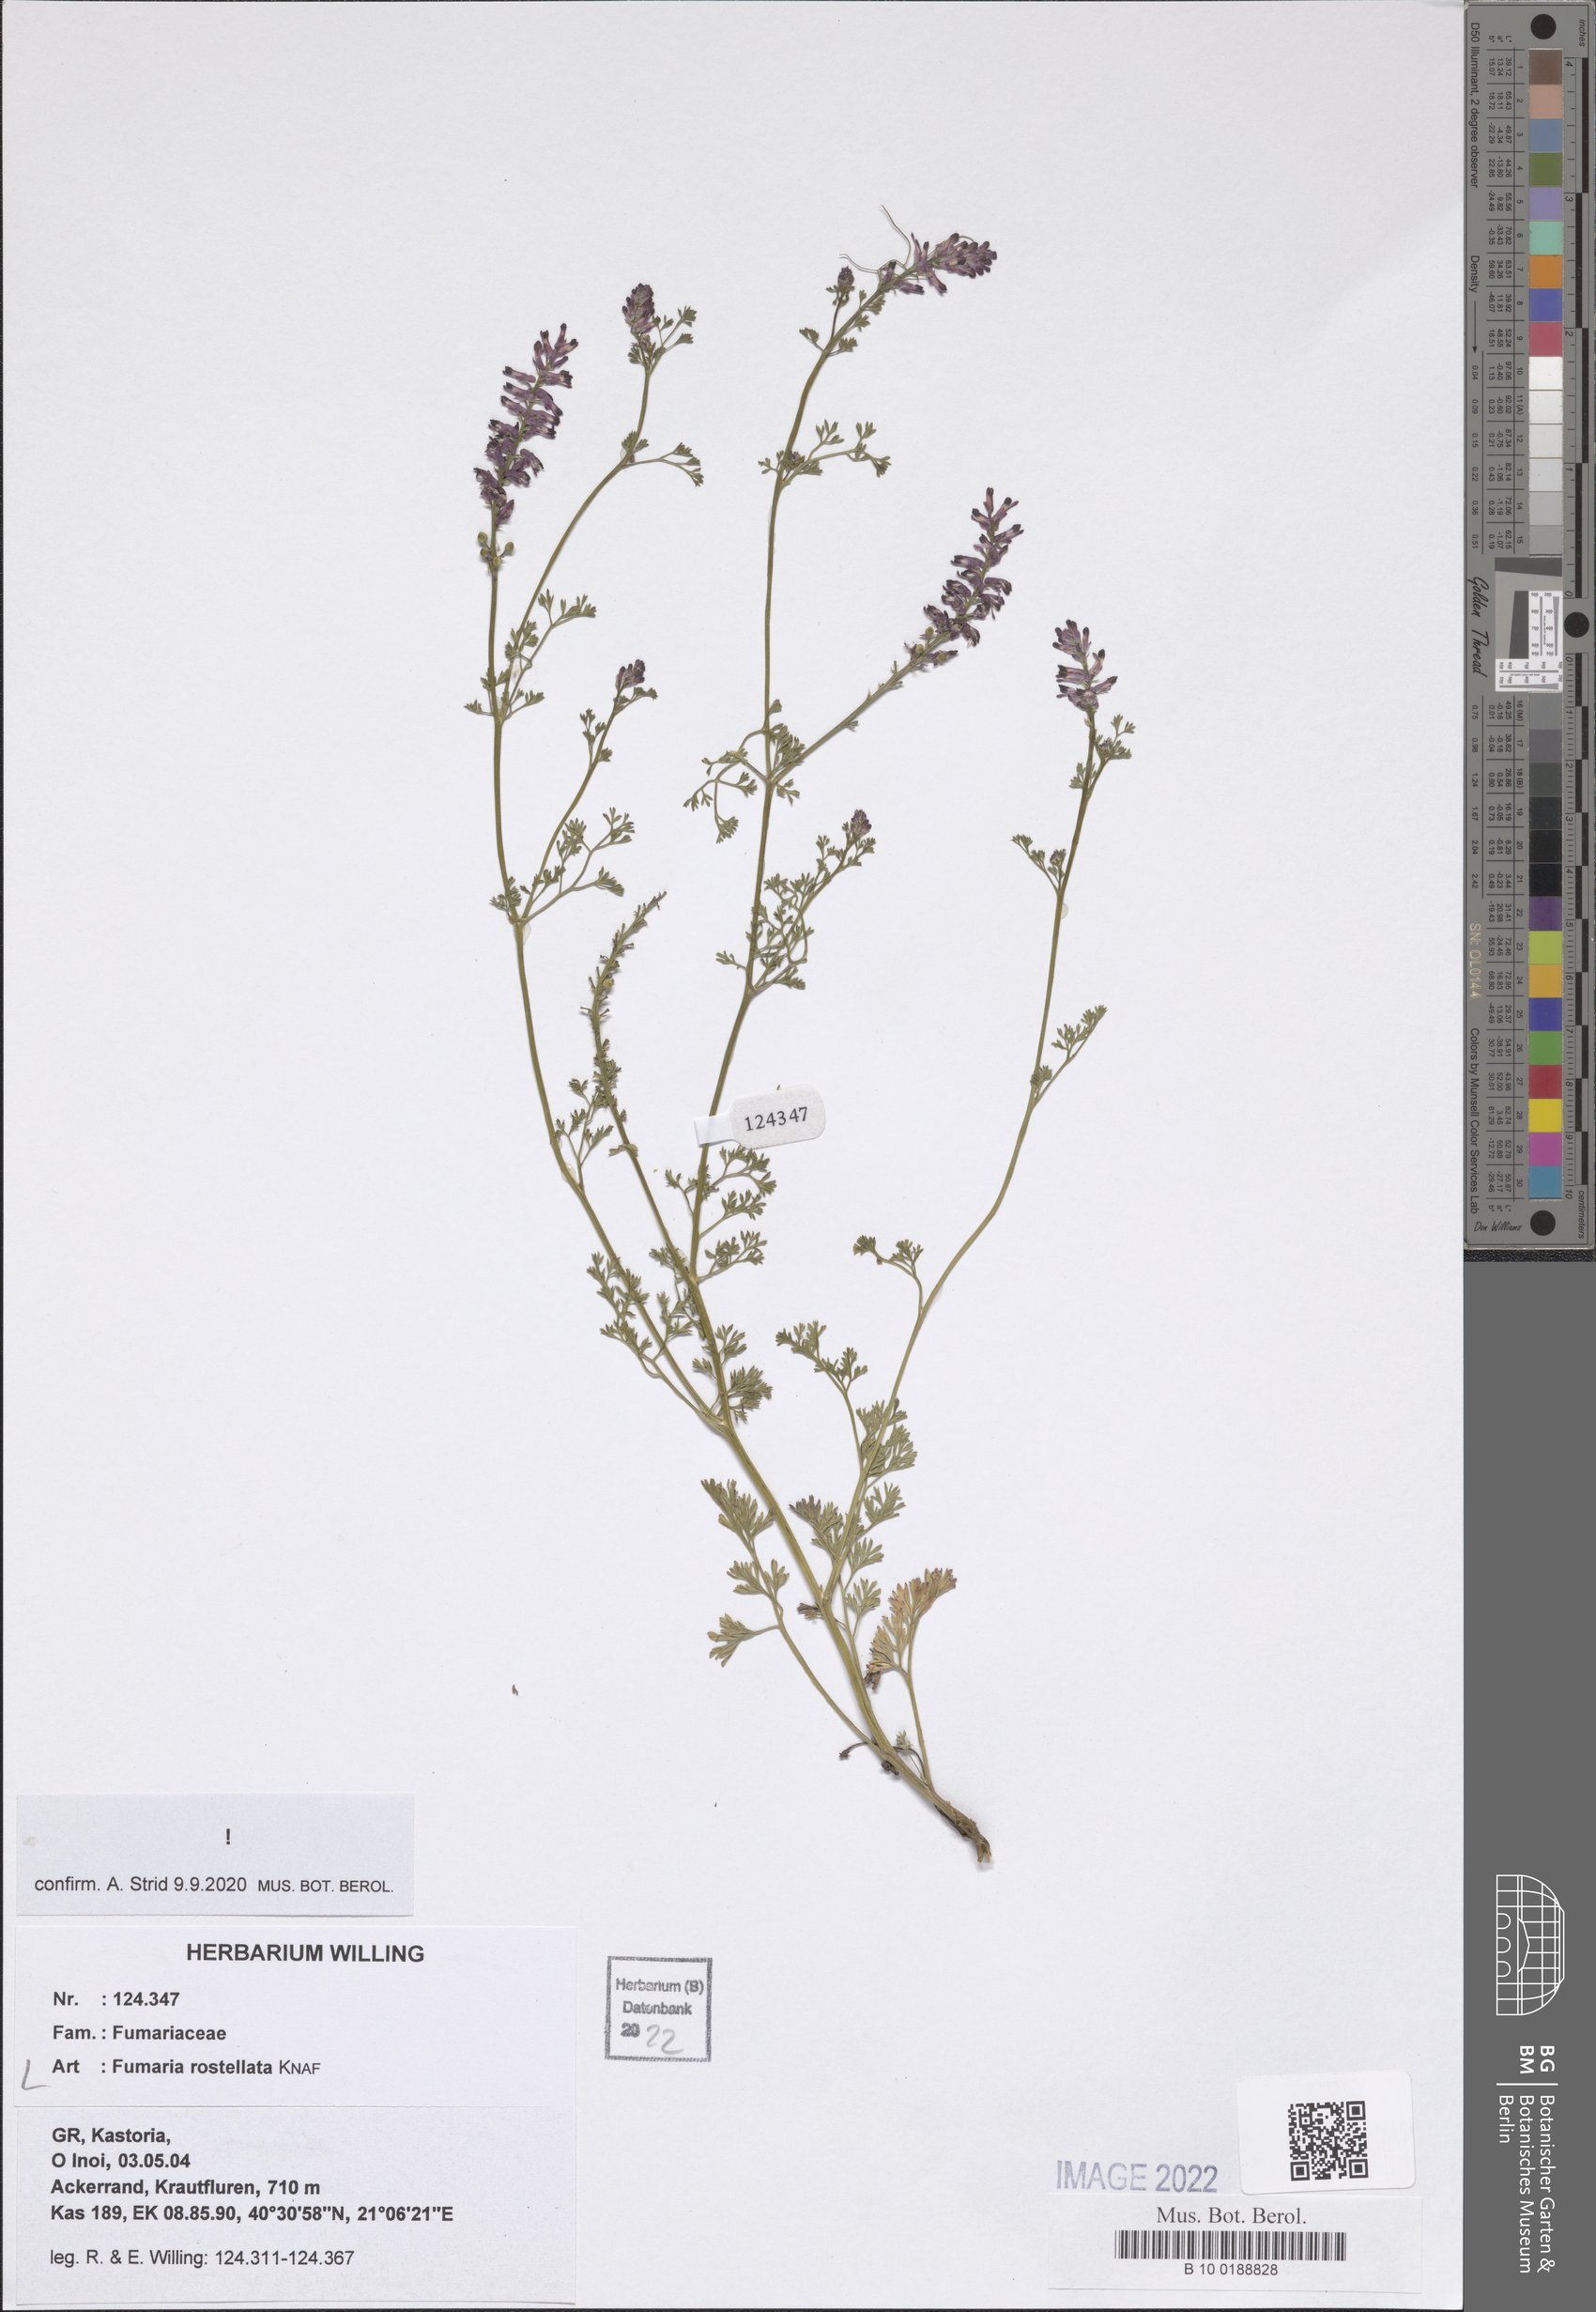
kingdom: Plantae
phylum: Tracheophyta
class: Magnoliopsida
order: Ranunculales
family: Papaveraceae
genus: Fumaria
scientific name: Fumaria rostellata
